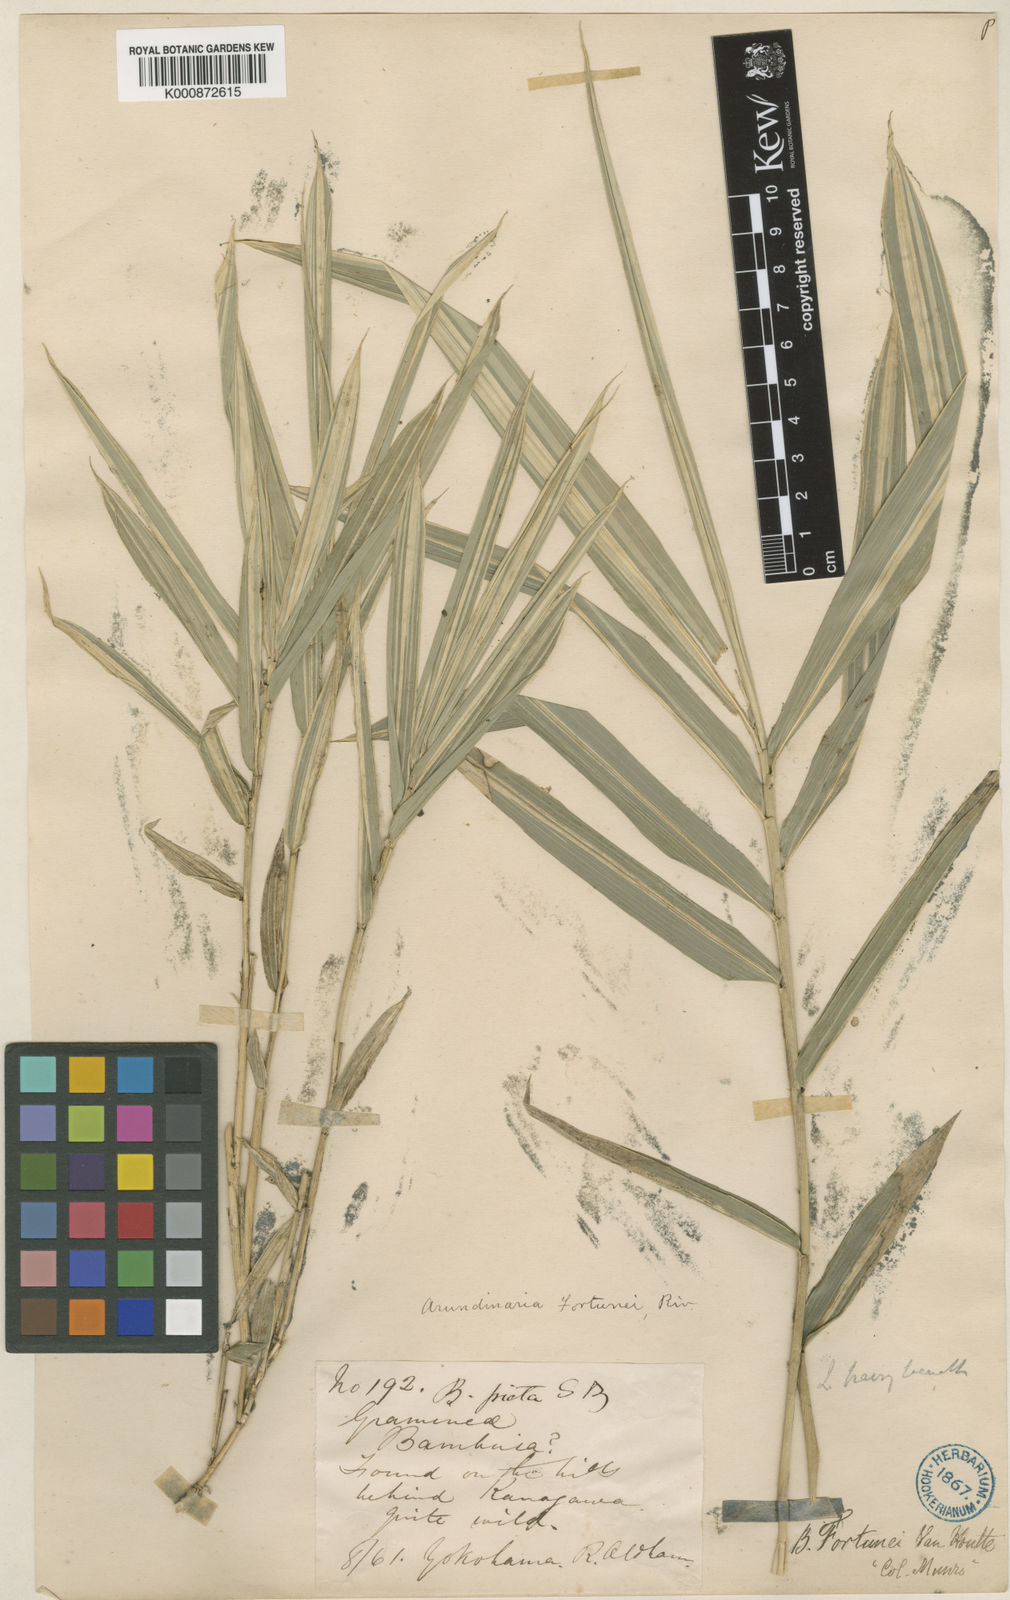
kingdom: Plantae
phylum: Tracheophyta
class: Liliopsida
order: Poales
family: Poaceae
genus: Arundinaria
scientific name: Arundinaria
